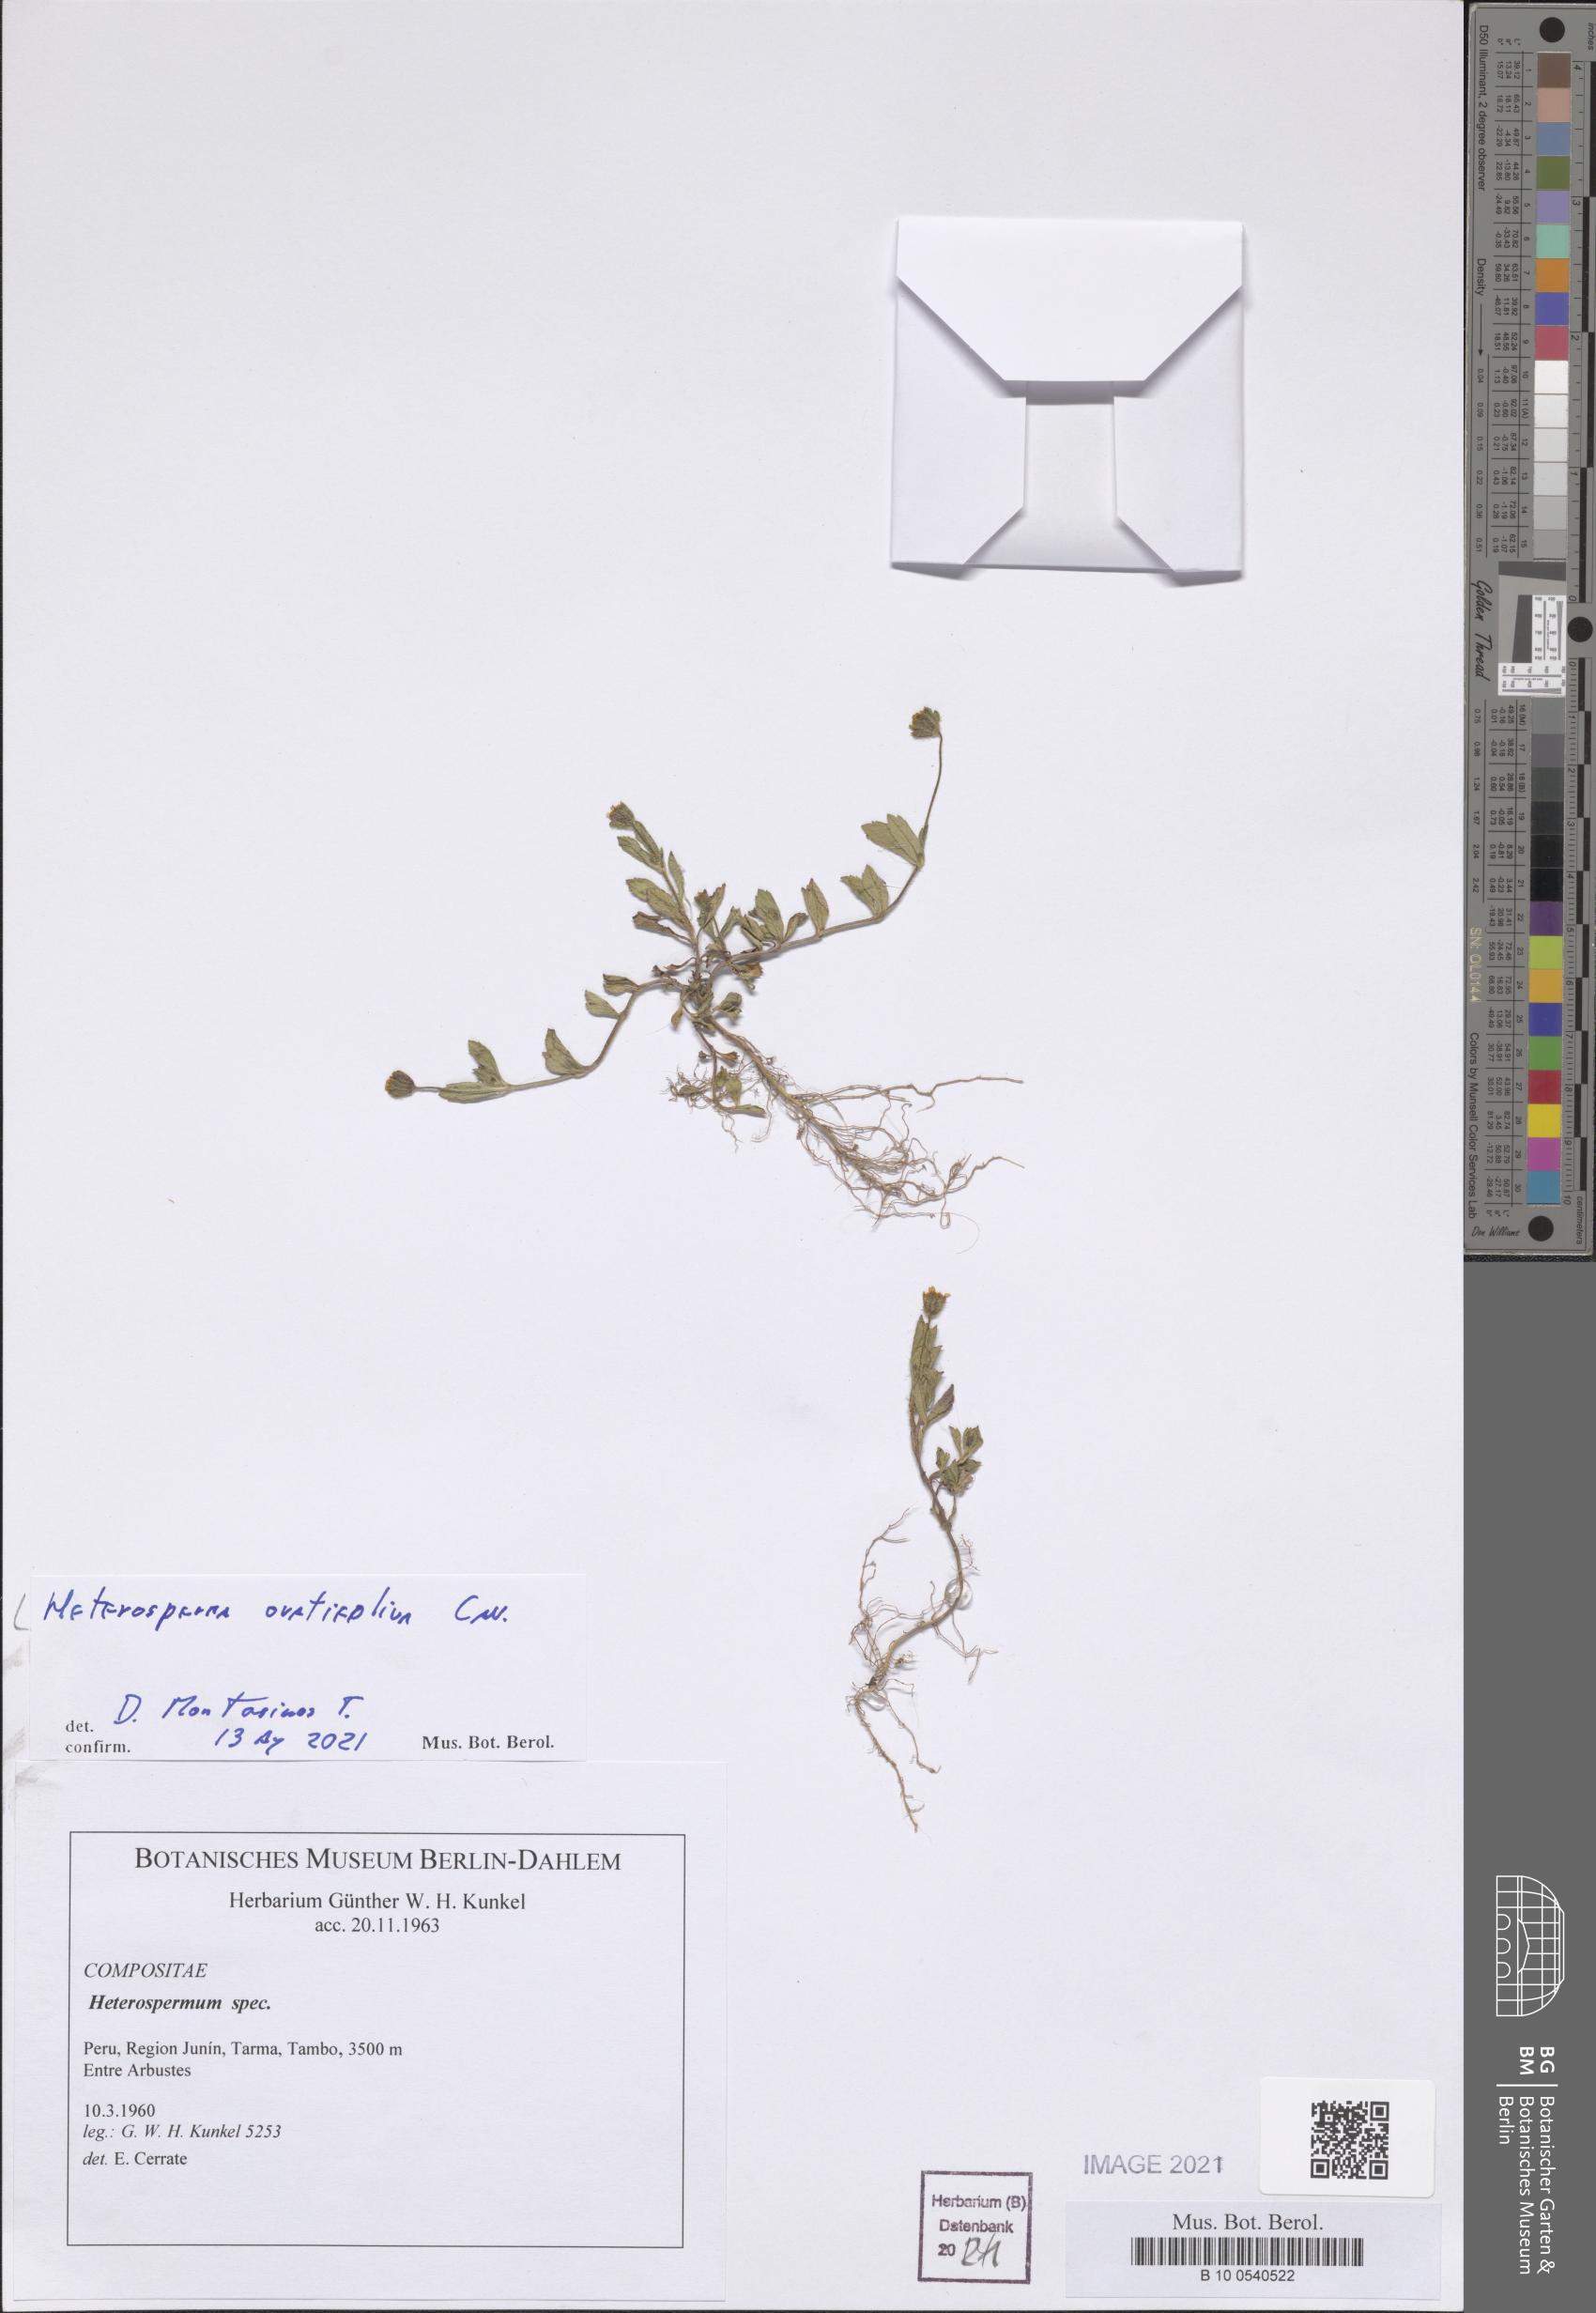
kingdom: Plantae
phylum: Tracheophyta
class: Magnoliopsida
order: Asterales
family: Asteraceae
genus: Heterosperma
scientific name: Heterosperma ovatifolium
